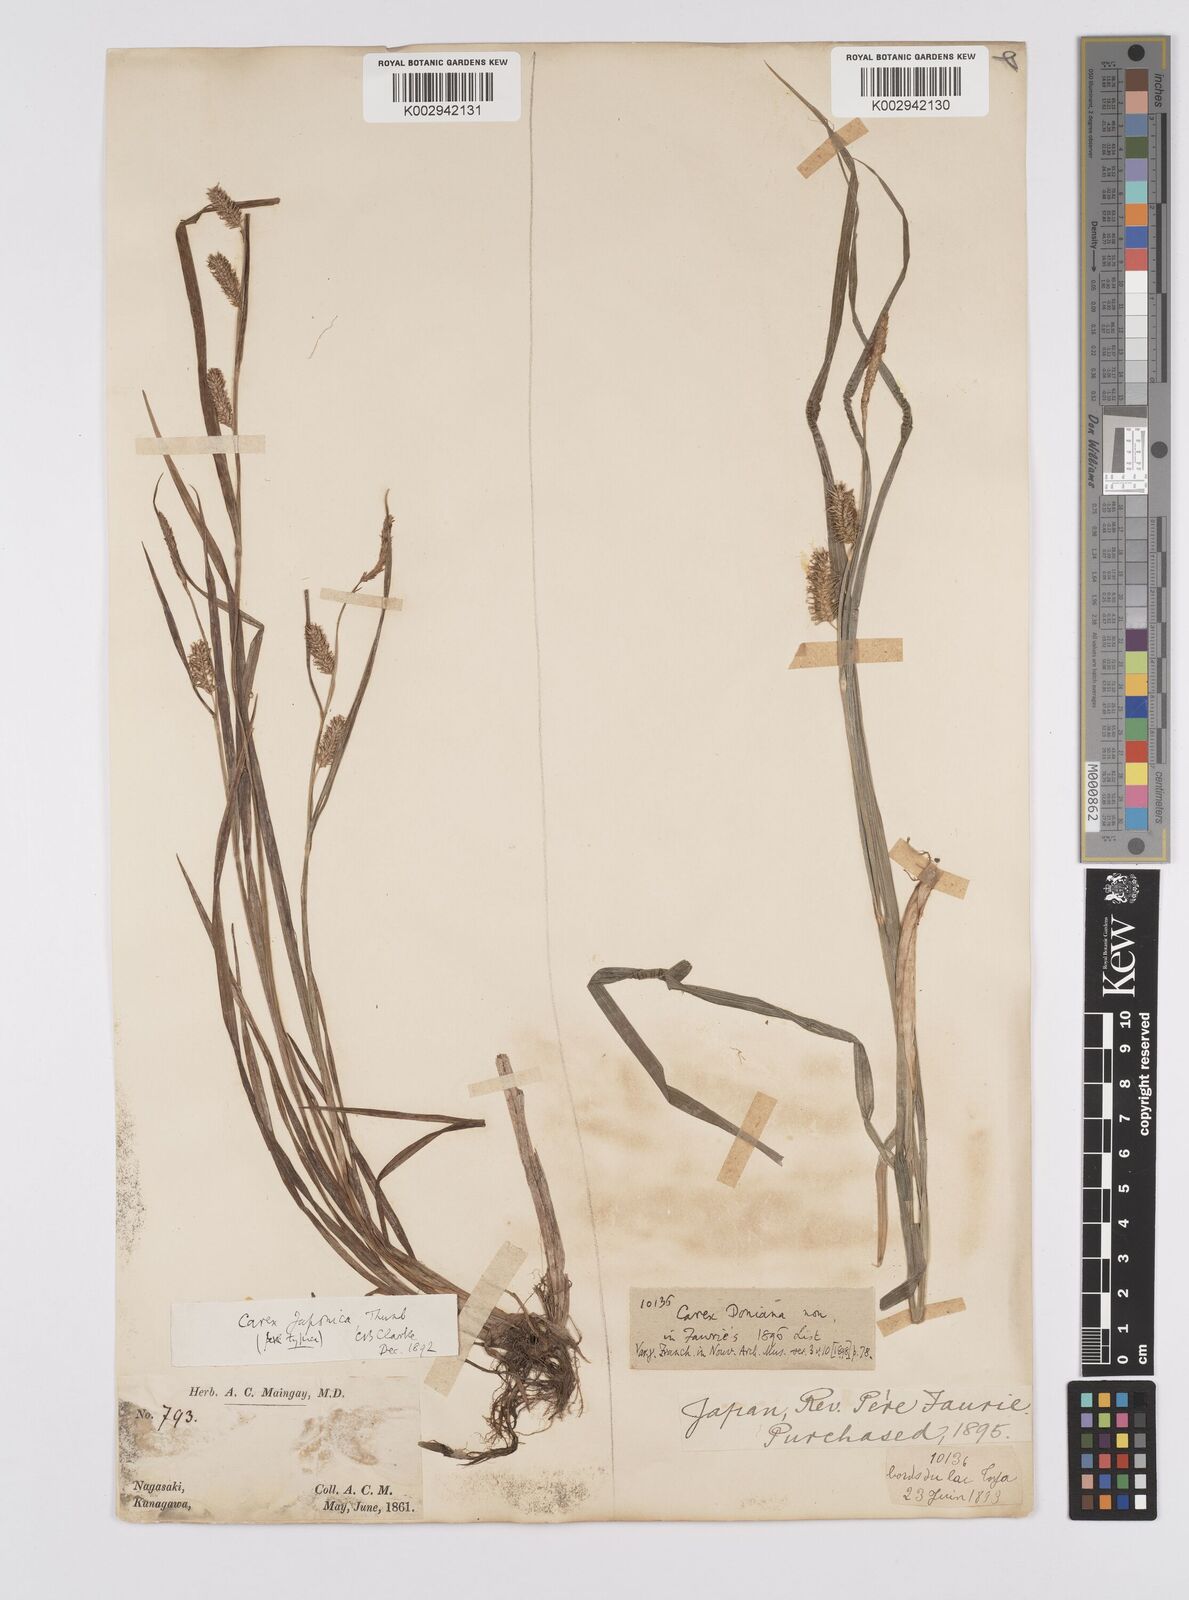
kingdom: Plantae
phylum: Tracheophyta
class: Liliopsida
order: Poales
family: Cyperaceae
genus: Carex
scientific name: Carex japonica
